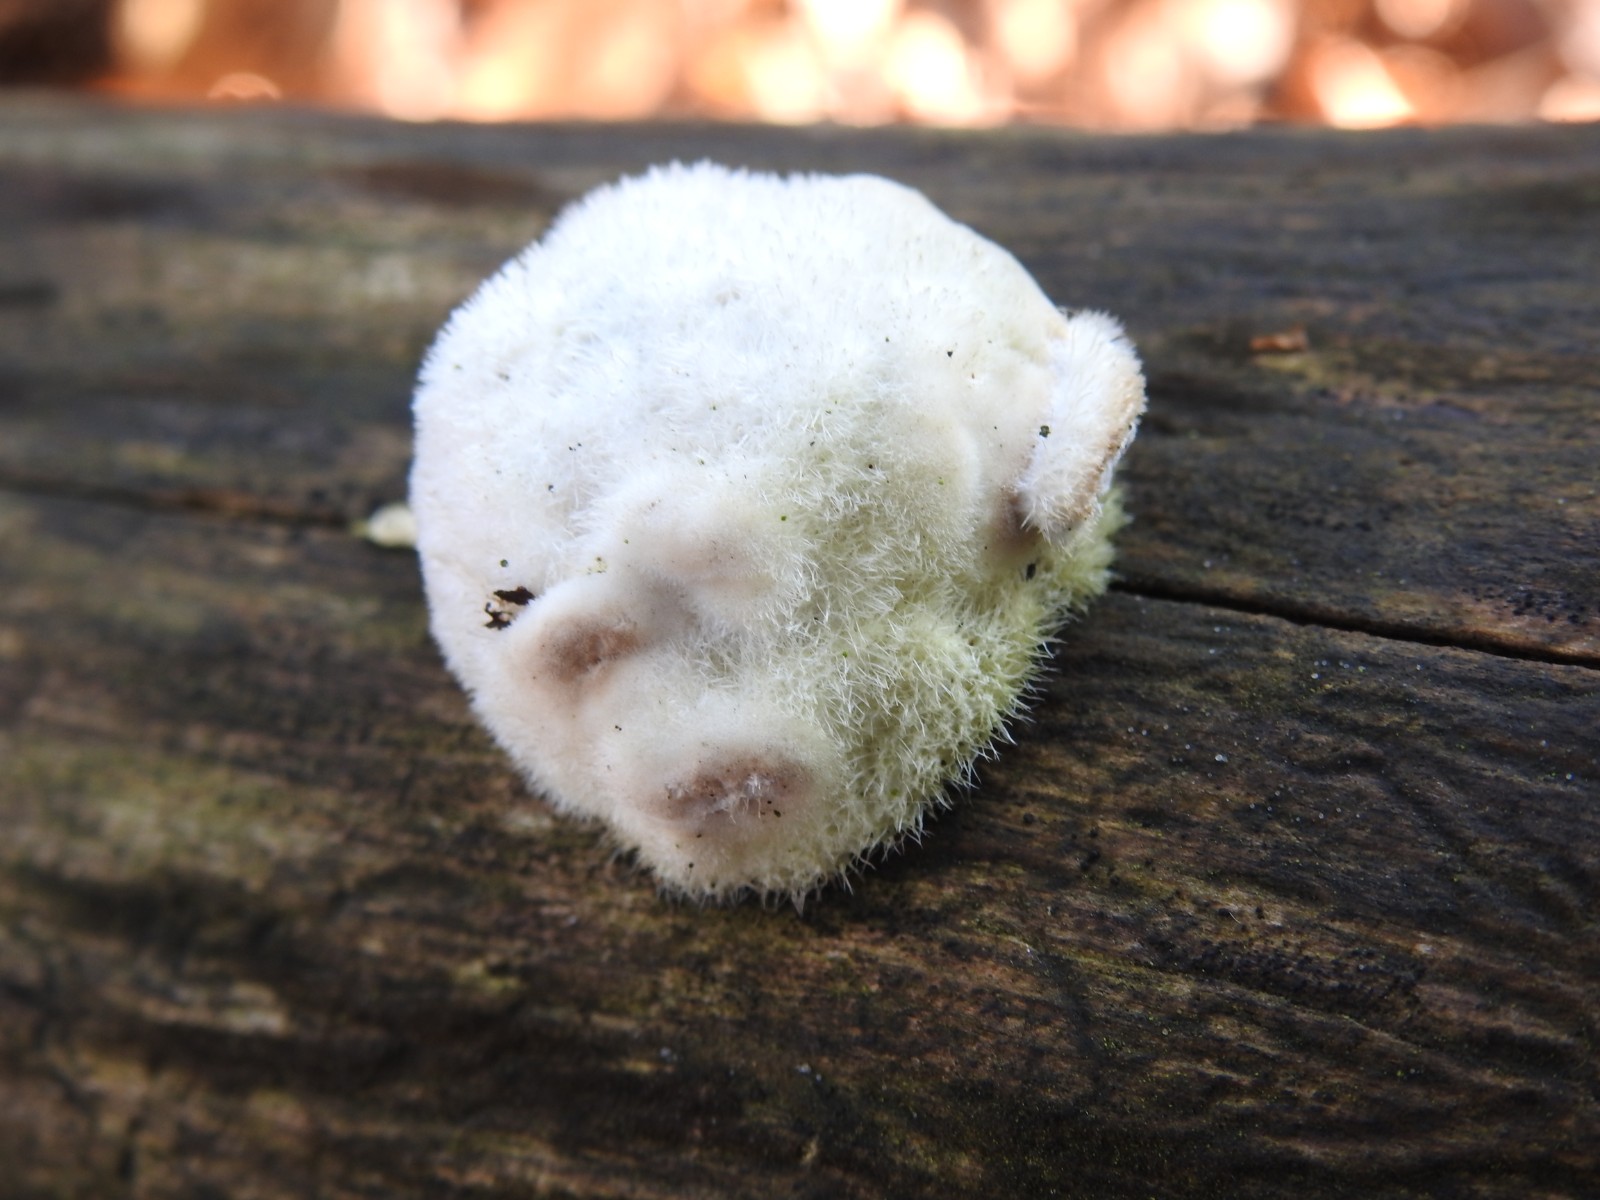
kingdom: Fungi
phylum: Basidiomycota
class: Agaricomycetes
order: Polyporales
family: Polyporaceae
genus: Trametes
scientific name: Trametes hirsuta
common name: håret læderporesvamp
